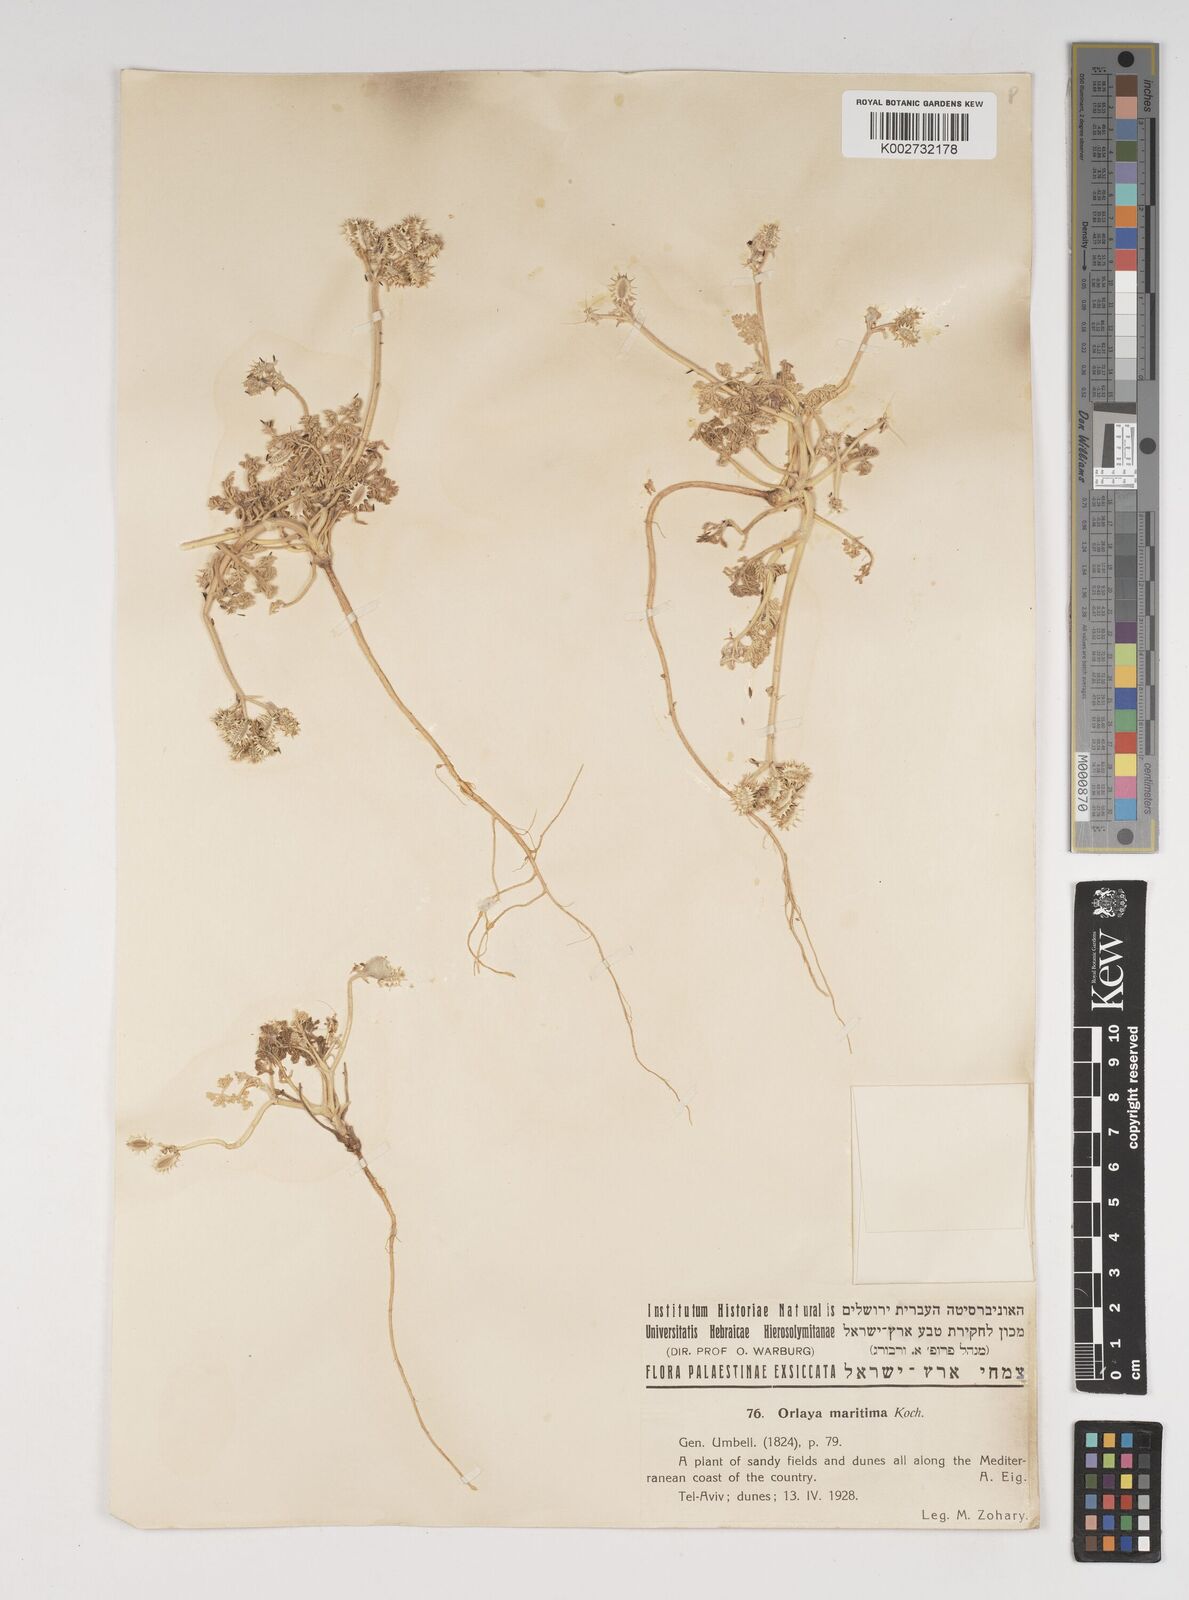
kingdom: Plantae
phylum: Tracheophyta
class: Magnoliopsida
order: Apiales
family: Apiaceae
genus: Daucus
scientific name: Daucus pumilus
